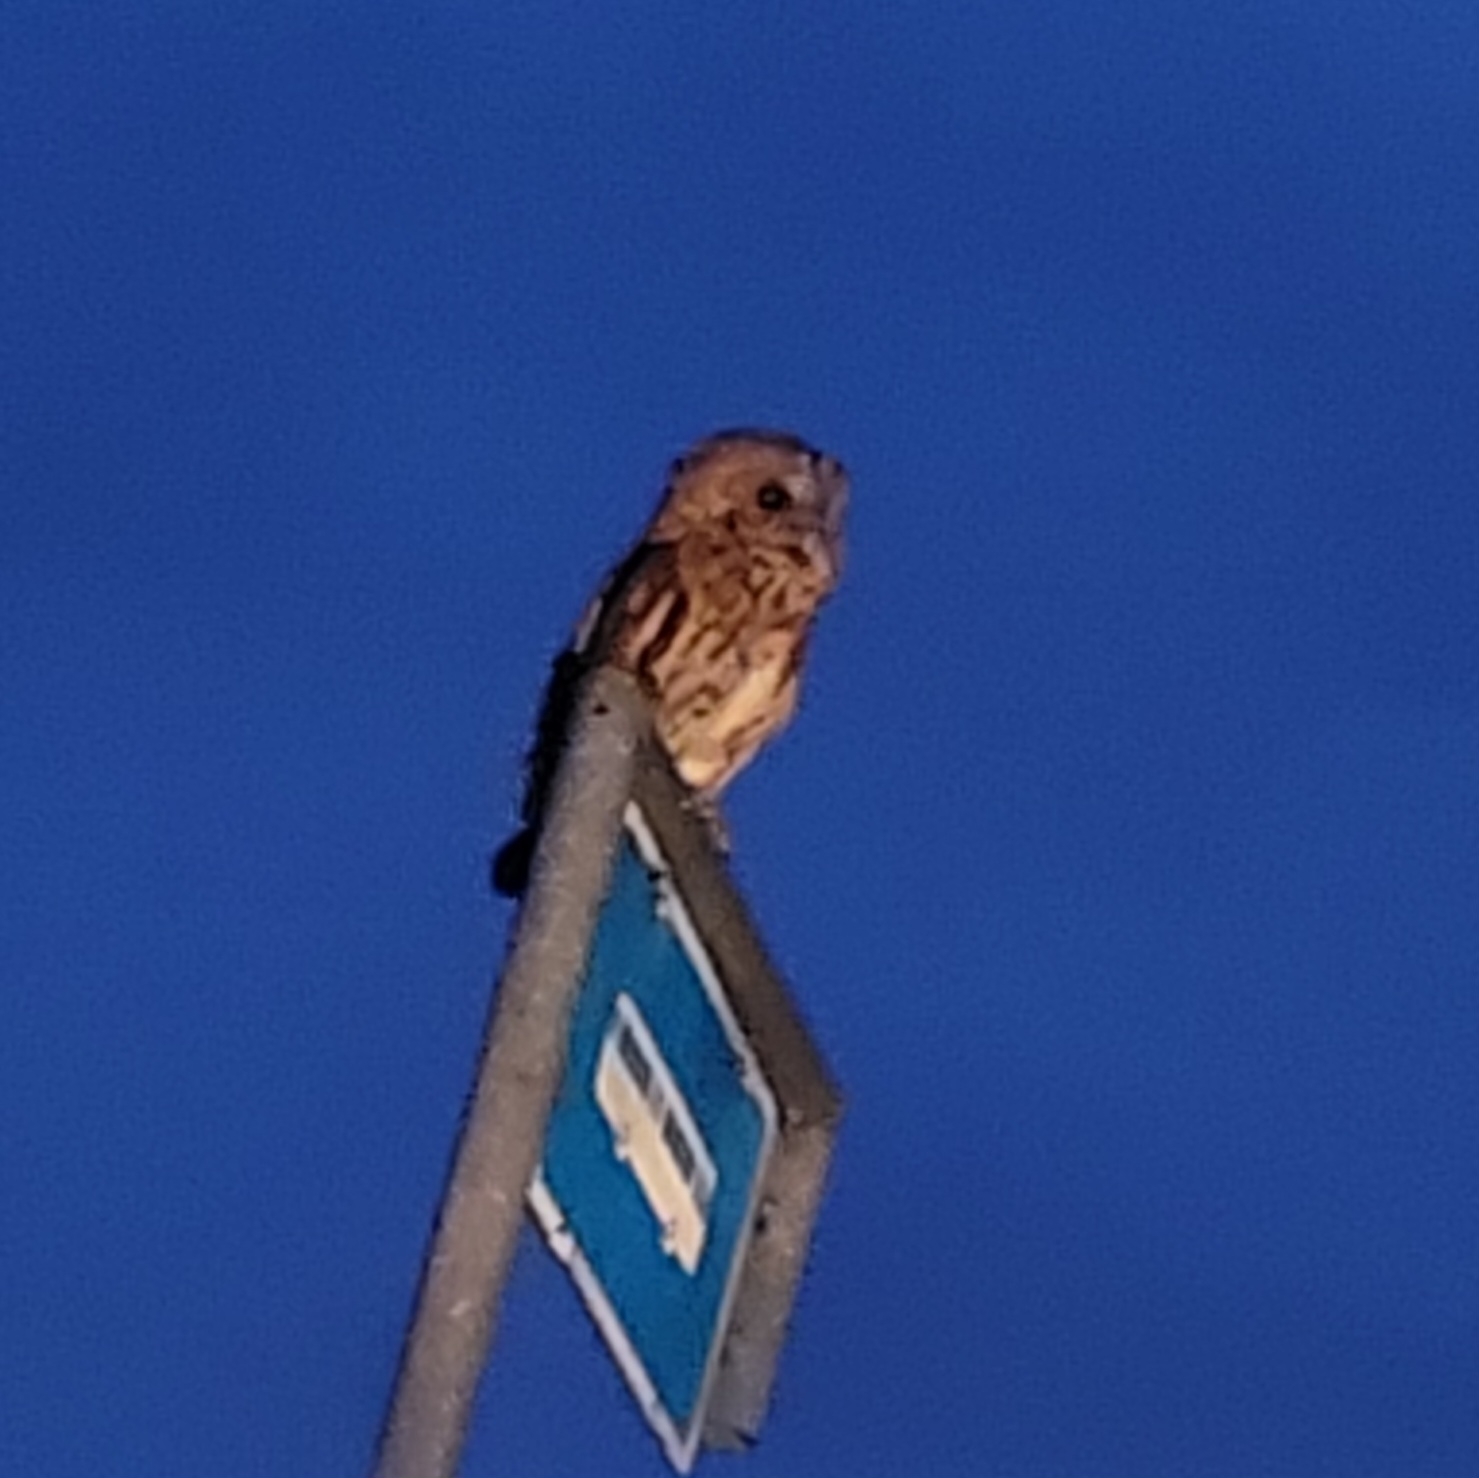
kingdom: Animalia
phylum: Chordata
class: Aves
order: Strigiformes
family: Strigidae
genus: Strix
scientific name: Strix aluco
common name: Natugle
